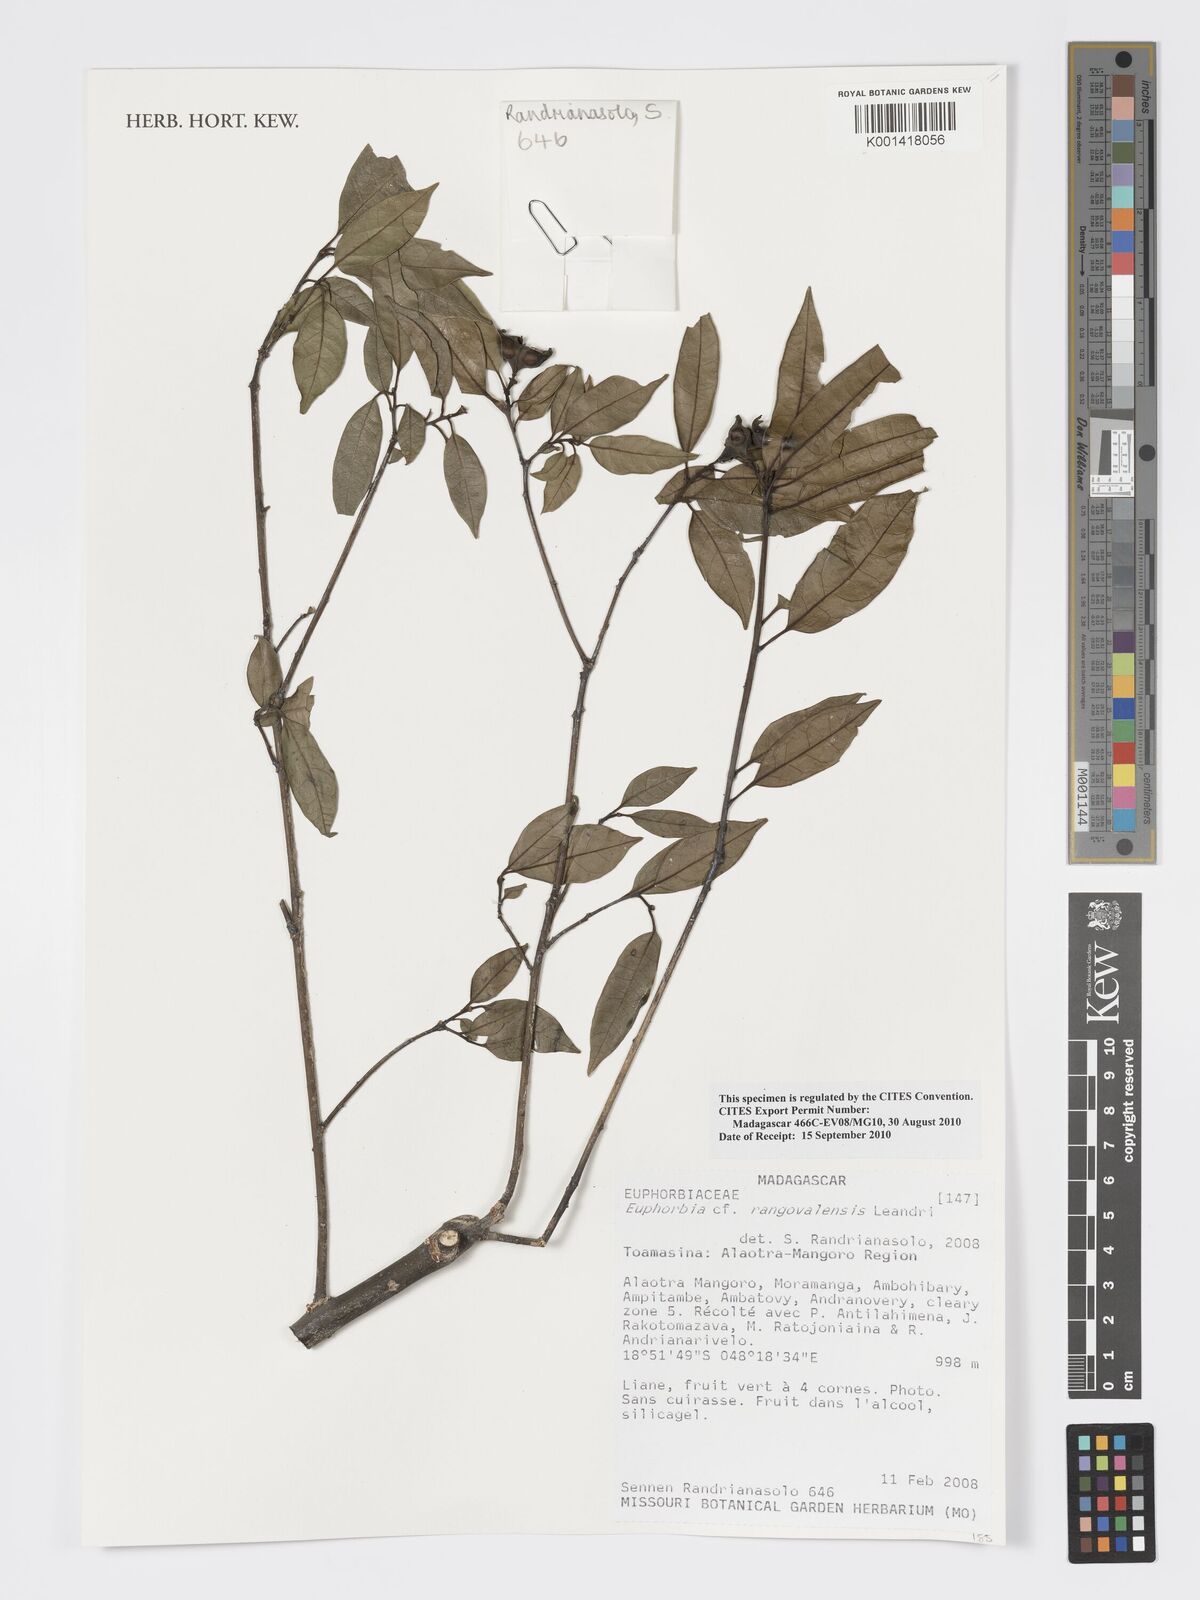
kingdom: Plantae
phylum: Tracheophyta
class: Magnoliopsida
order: Malpighiales
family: Euphorbiaceae
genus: Euphorbia
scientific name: Euphorbia rangovalensis
